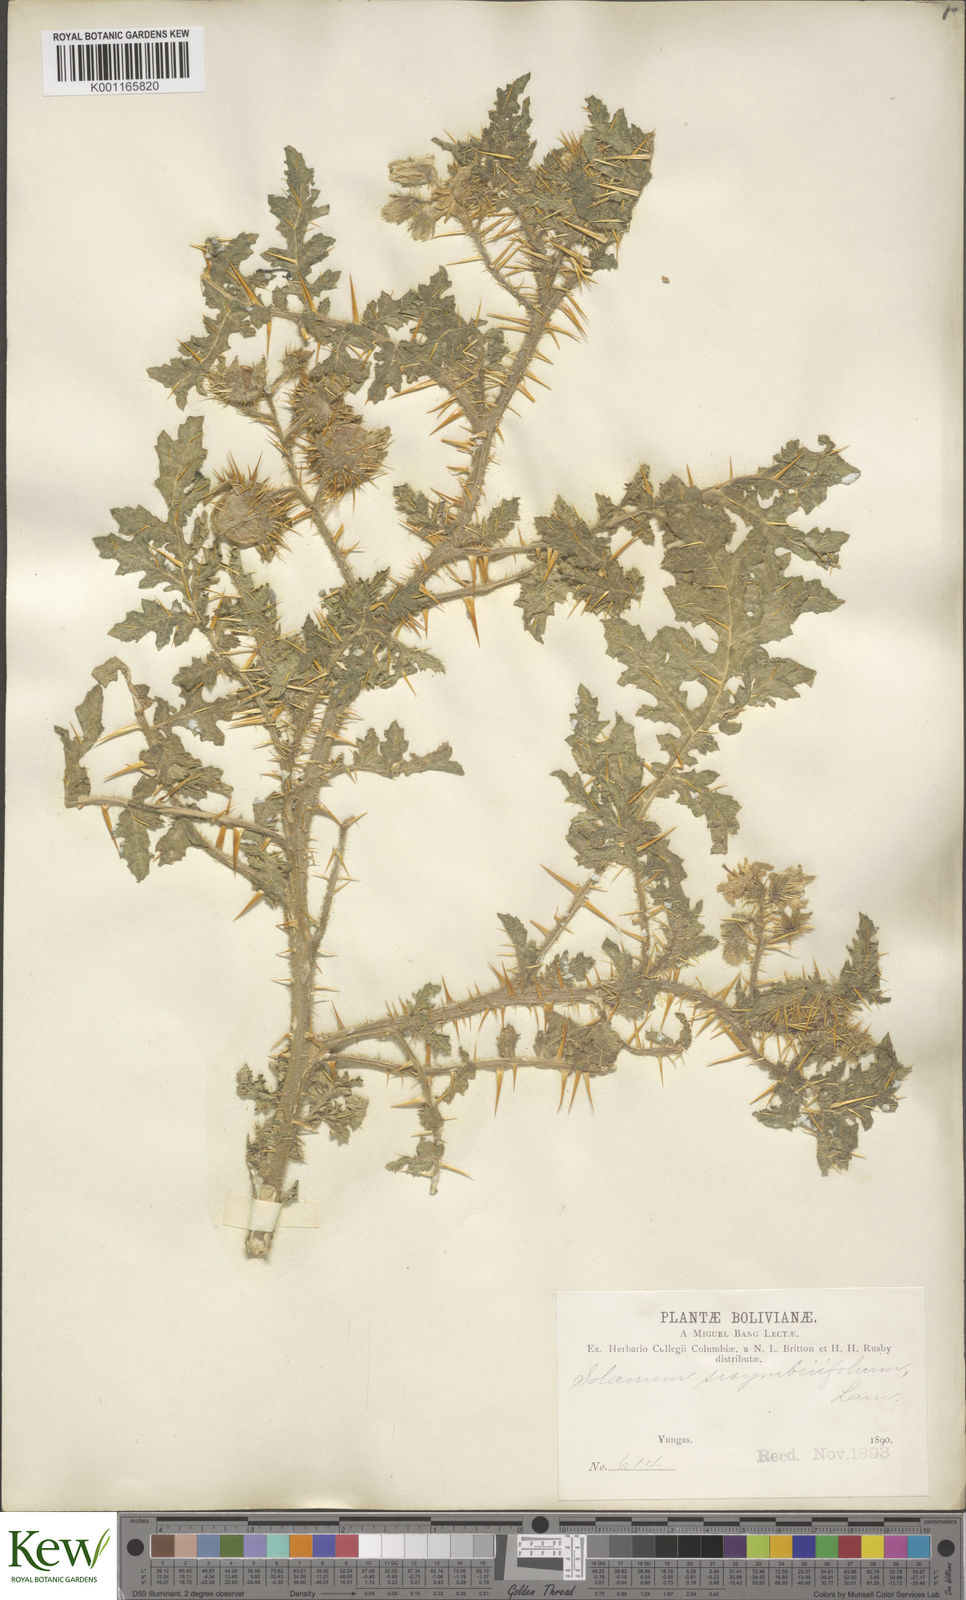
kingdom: Plantae
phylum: Tracheophyta
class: Magnoliopsida
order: Solanales
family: Solanaceae
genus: Solanum
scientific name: Solanum sisymbriifolium
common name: Red buffalo-bur
